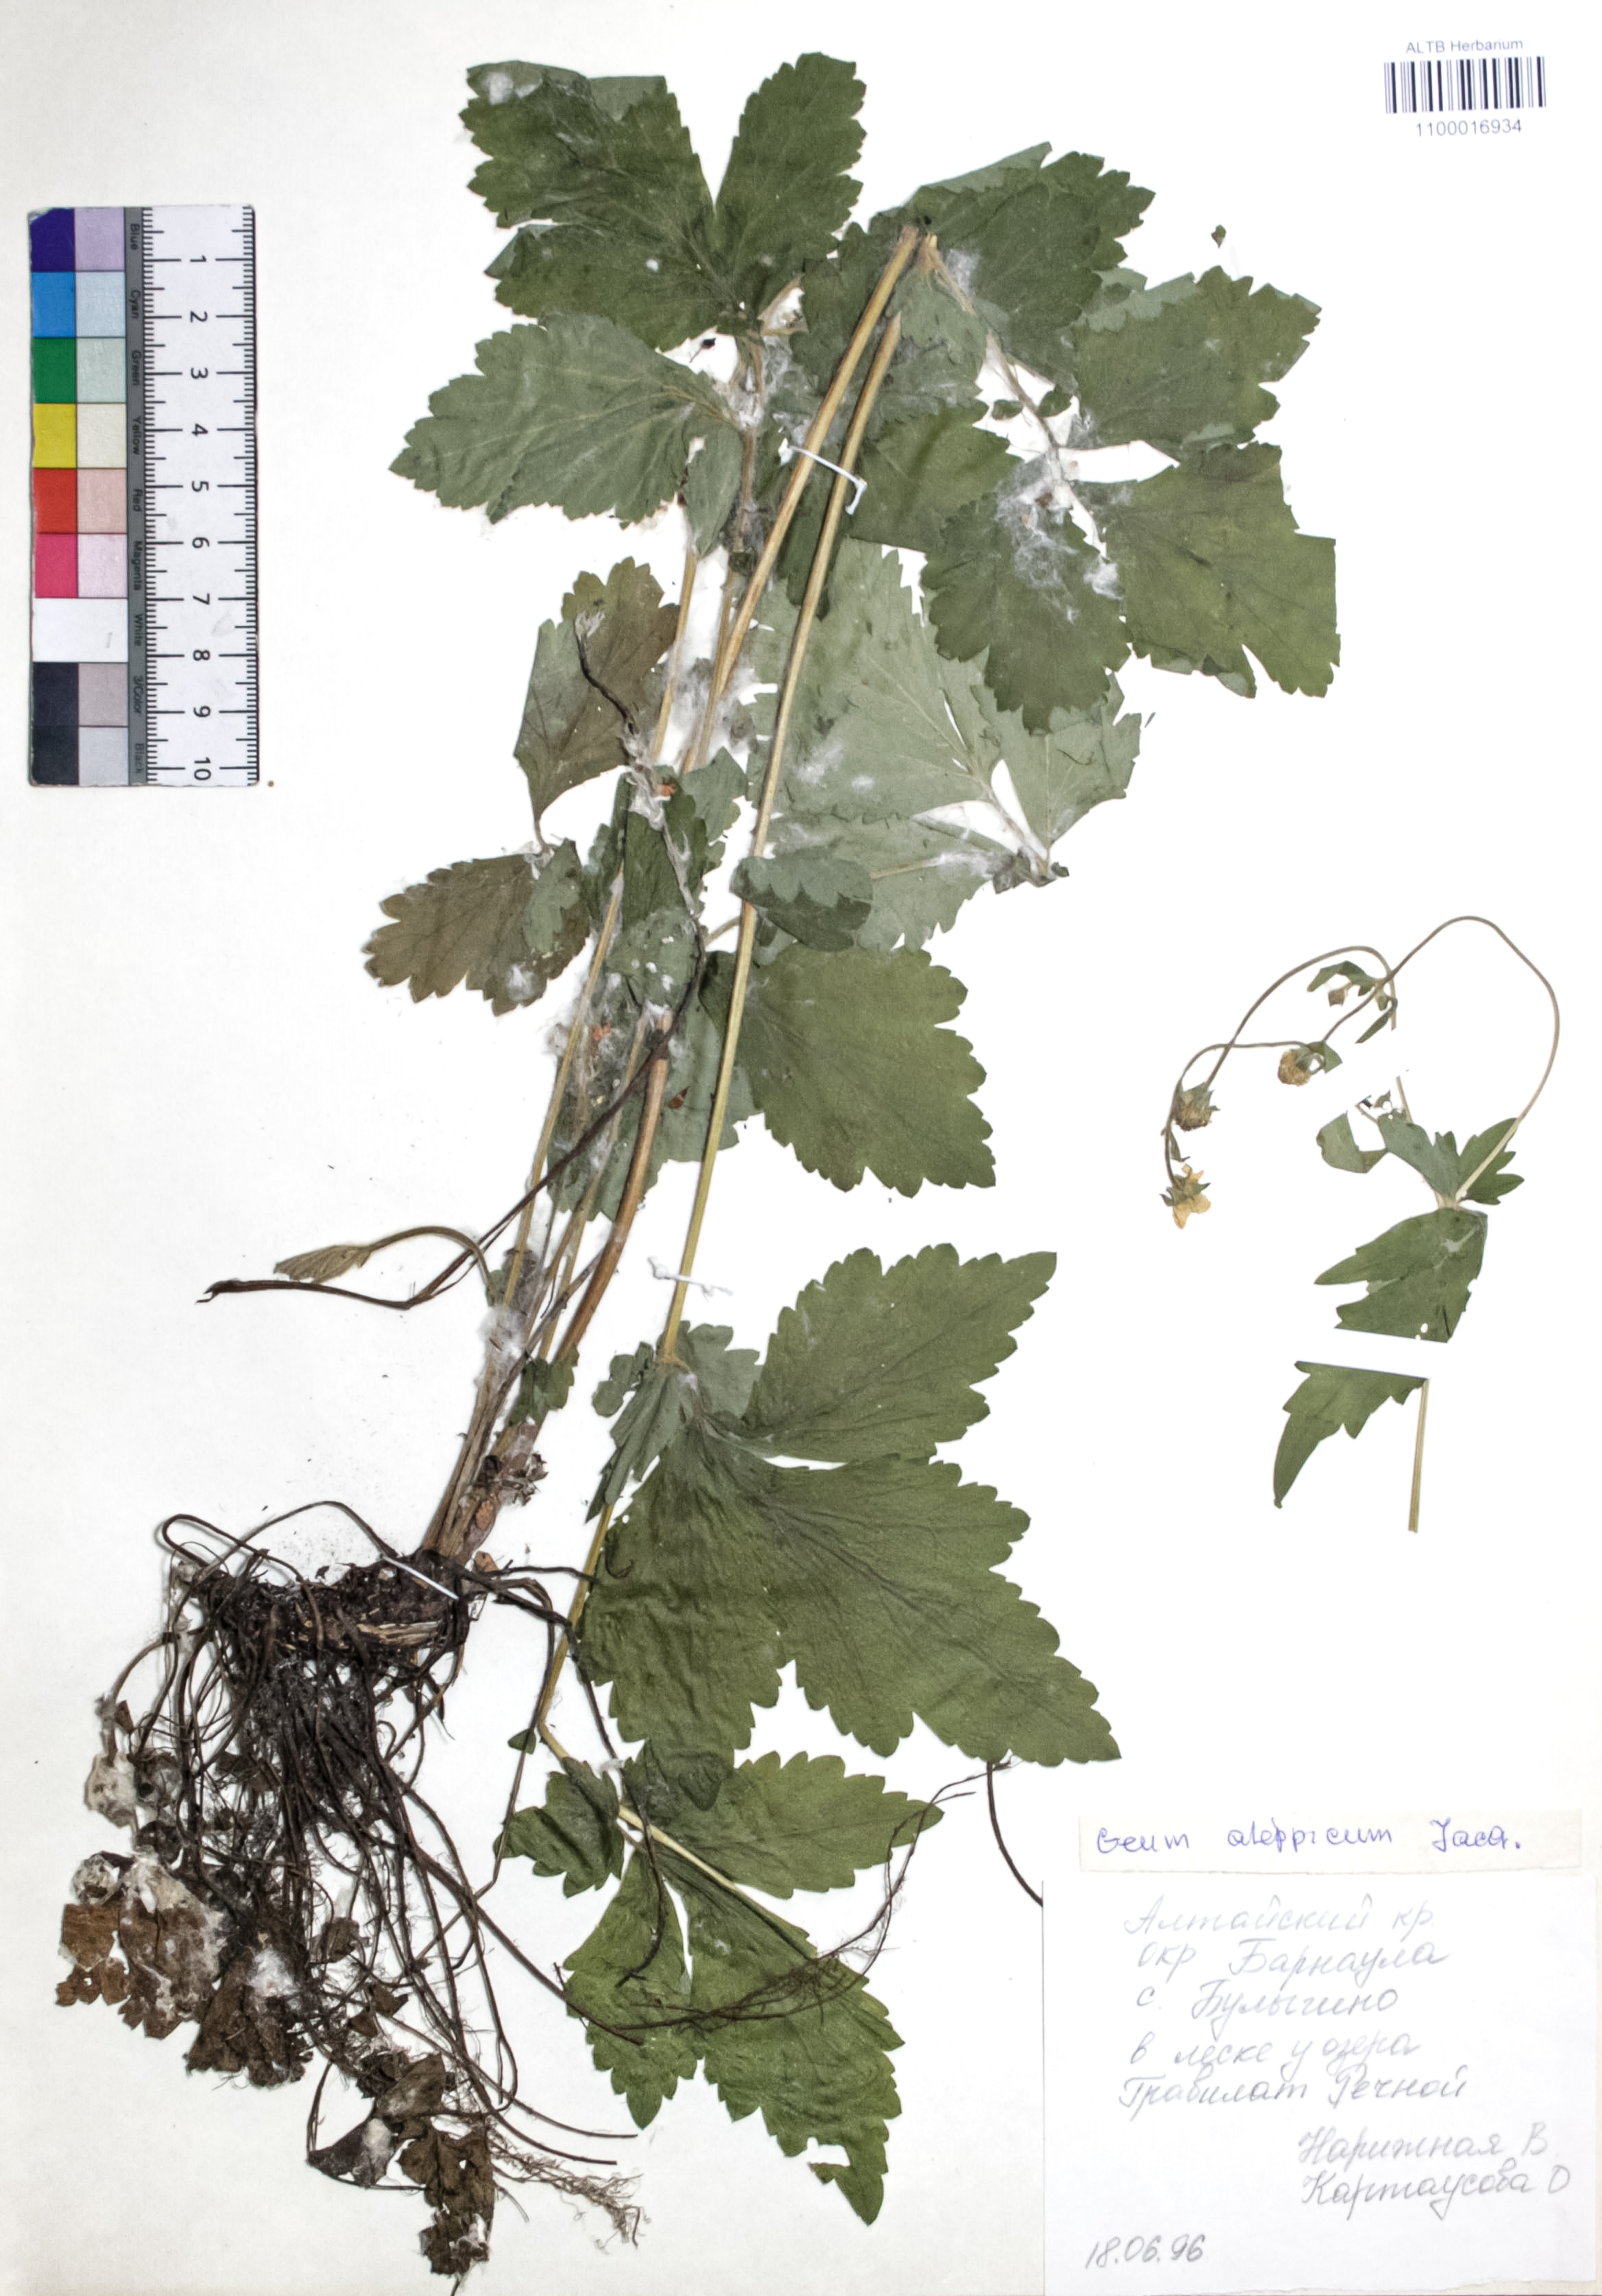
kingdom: Plantae
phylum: Tracheophyta
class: Magnoliopsida
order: Rosales
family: Rosaceae
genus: Geum
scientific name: Geum aleppicum
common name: Yellow avens
